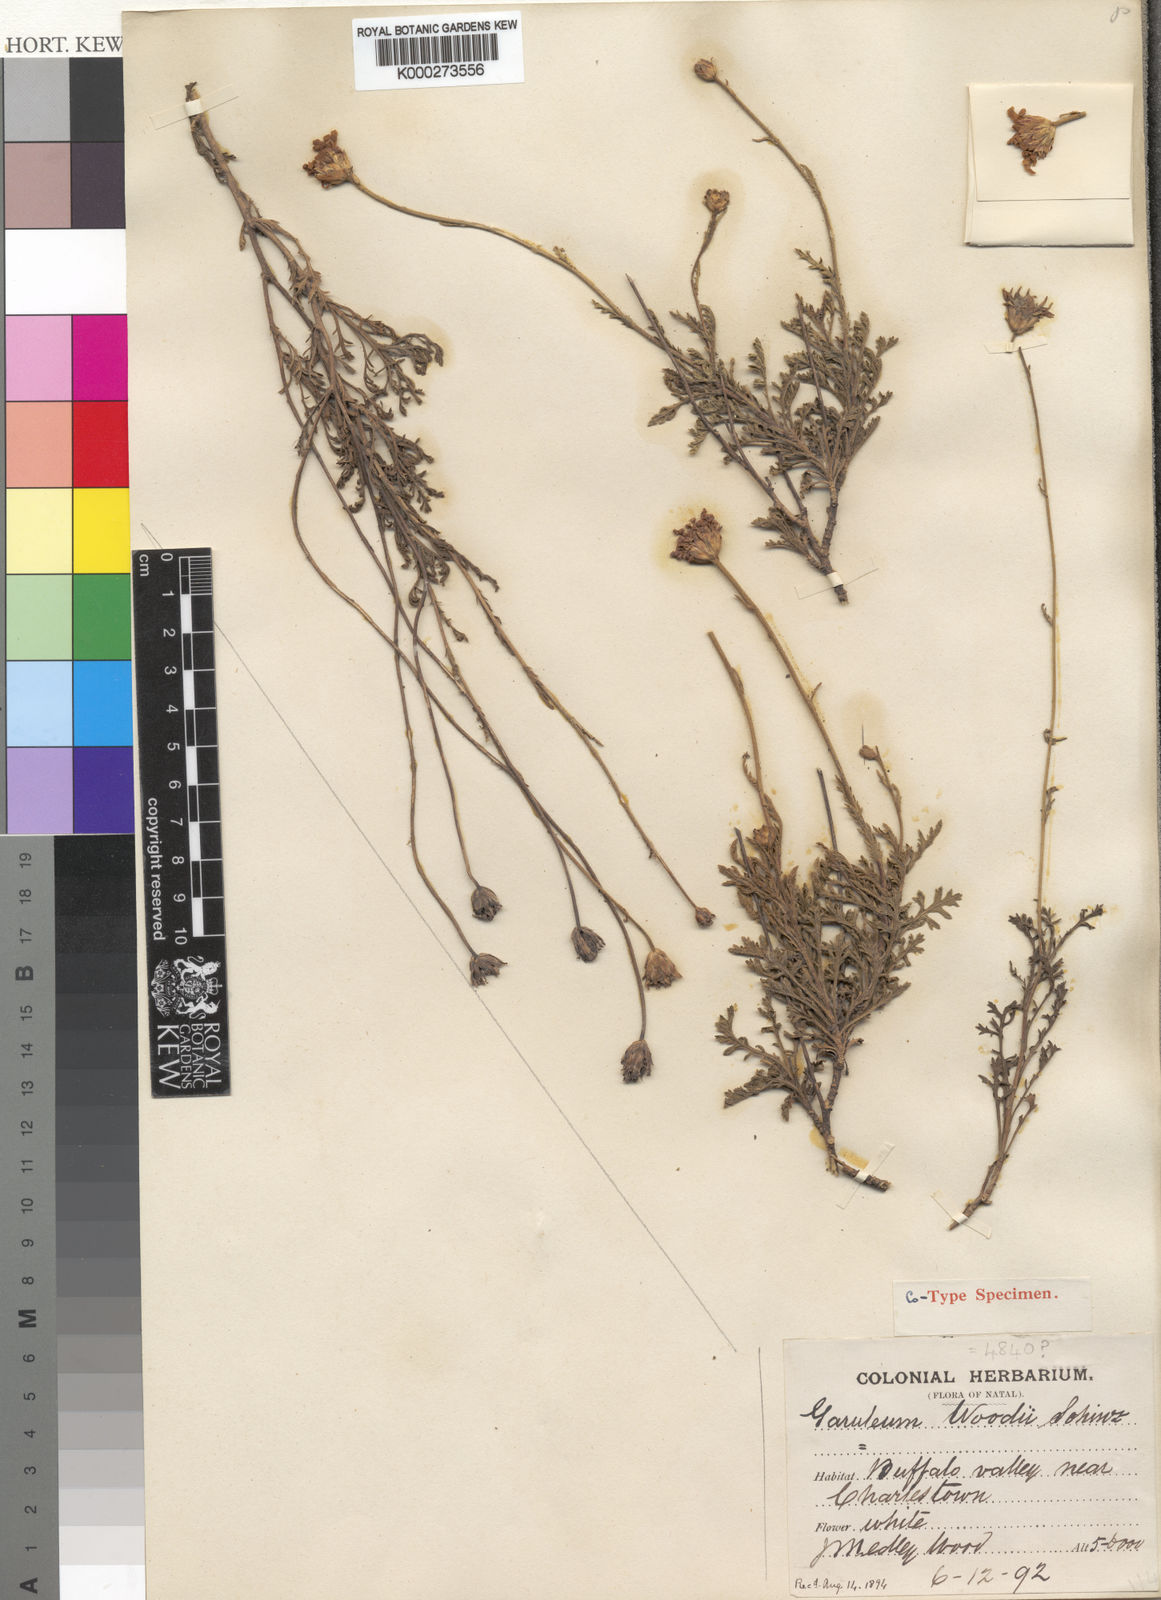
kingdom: Plantae
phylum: Tracheophyta
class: Magnoliopsida
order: Asterales
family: Asteraceae
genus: Garuleum
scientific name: Garuleum woodii
